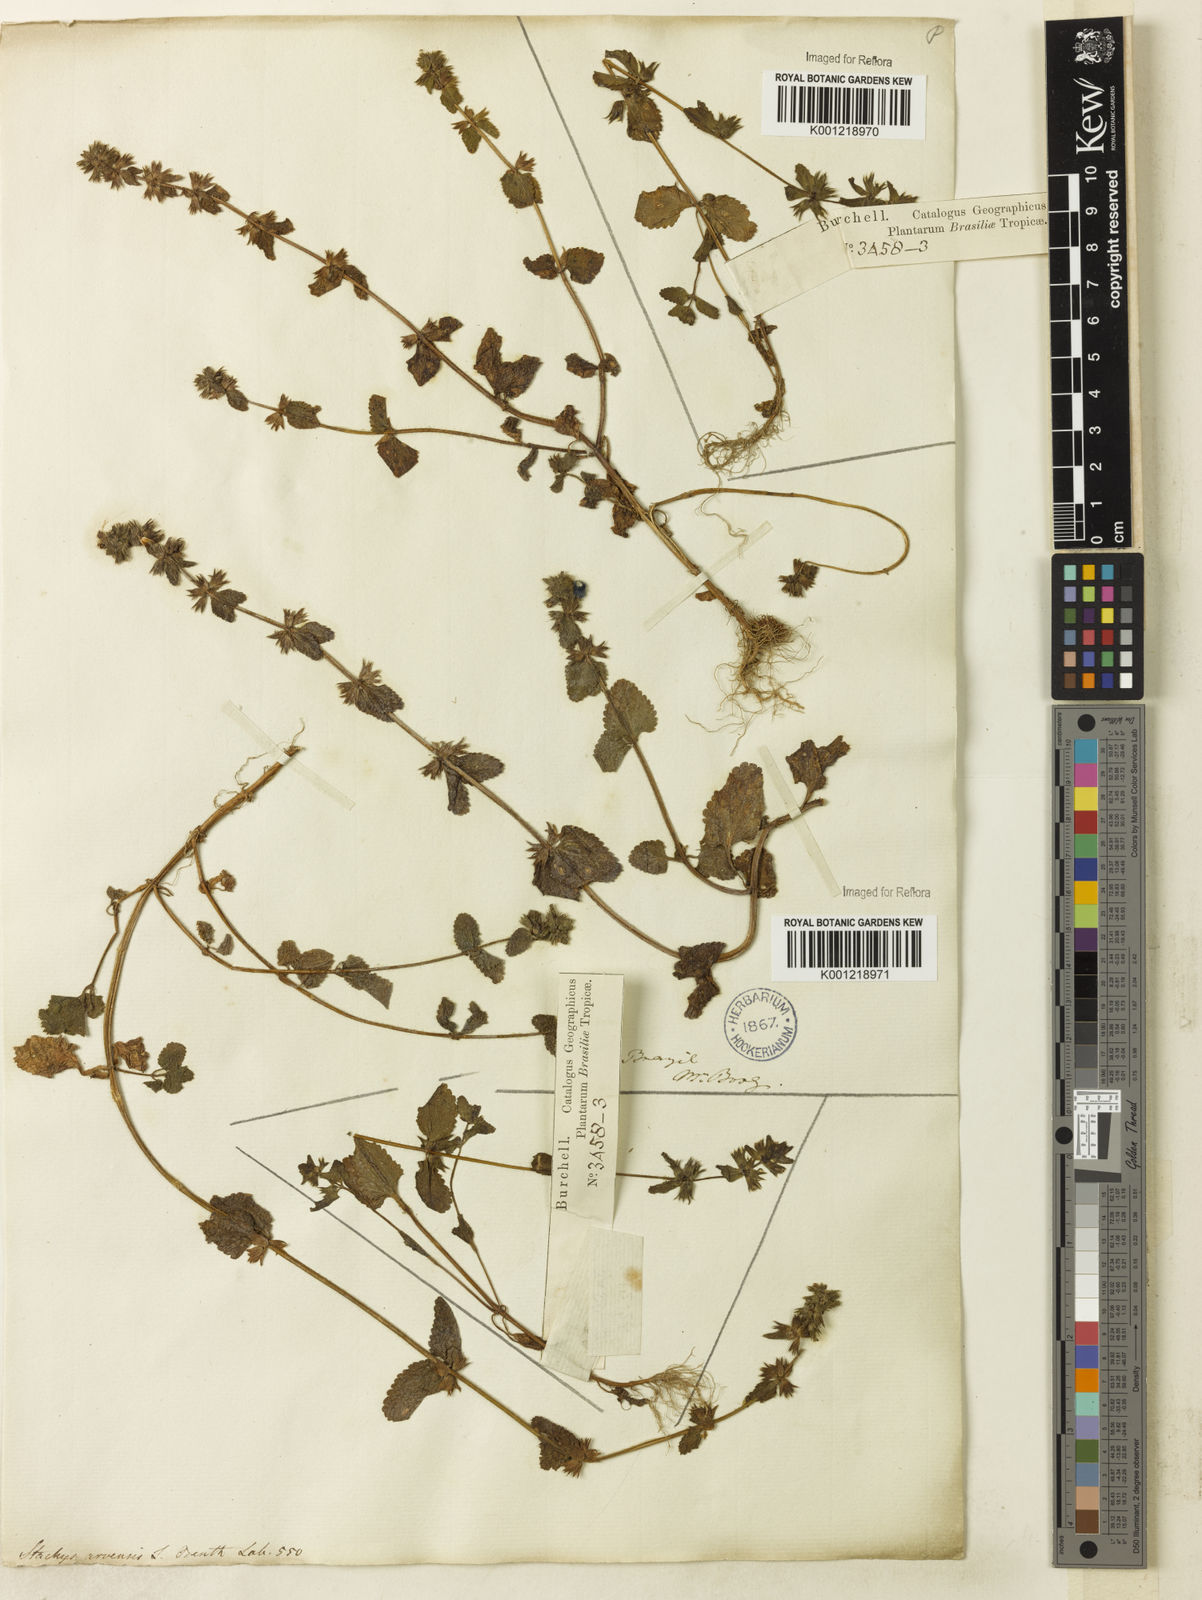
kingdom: Plantae
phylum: Tracheophyta
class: Magnoliopsida
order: Lamiales
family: Lamiaceae
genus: Stachys
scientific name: Stachys arvensis
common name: Field woundwort
